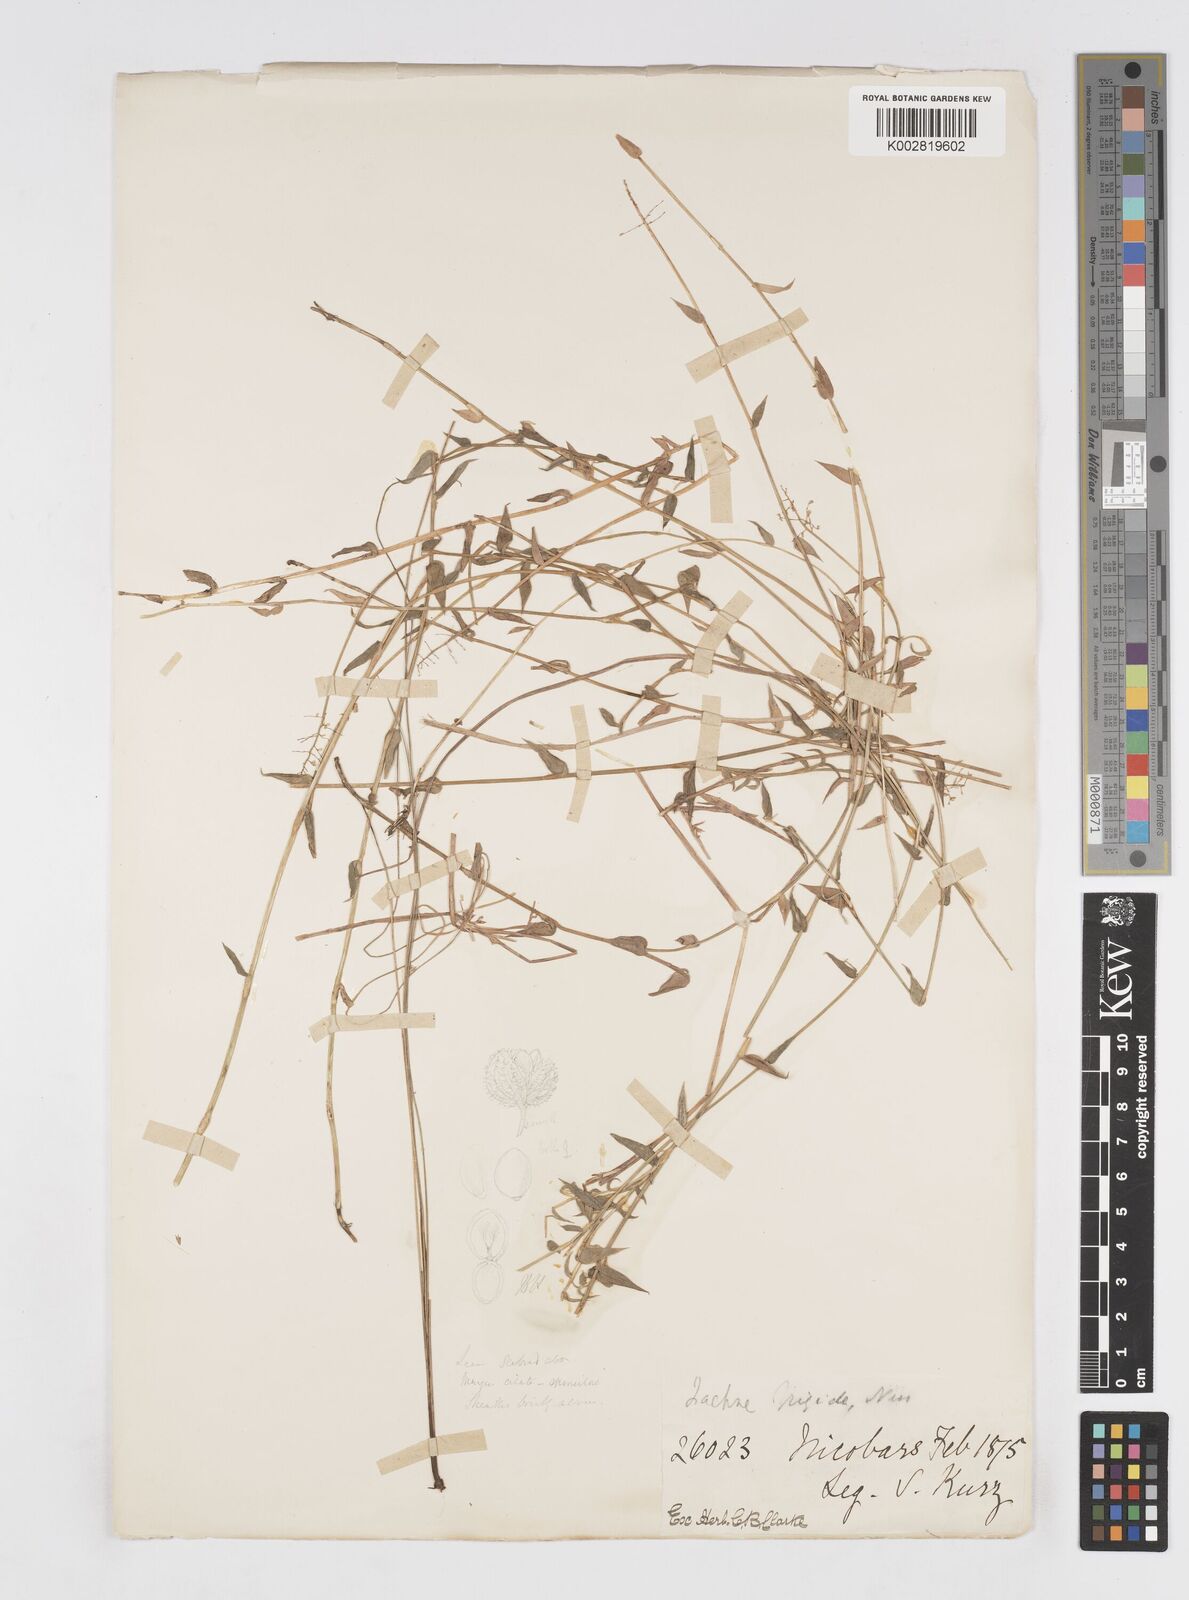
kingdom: Plantae
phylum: Tracheophyta
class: Liliopsida
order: Poales
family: Poaceae
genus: Isachne
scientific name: Isachne confusa
